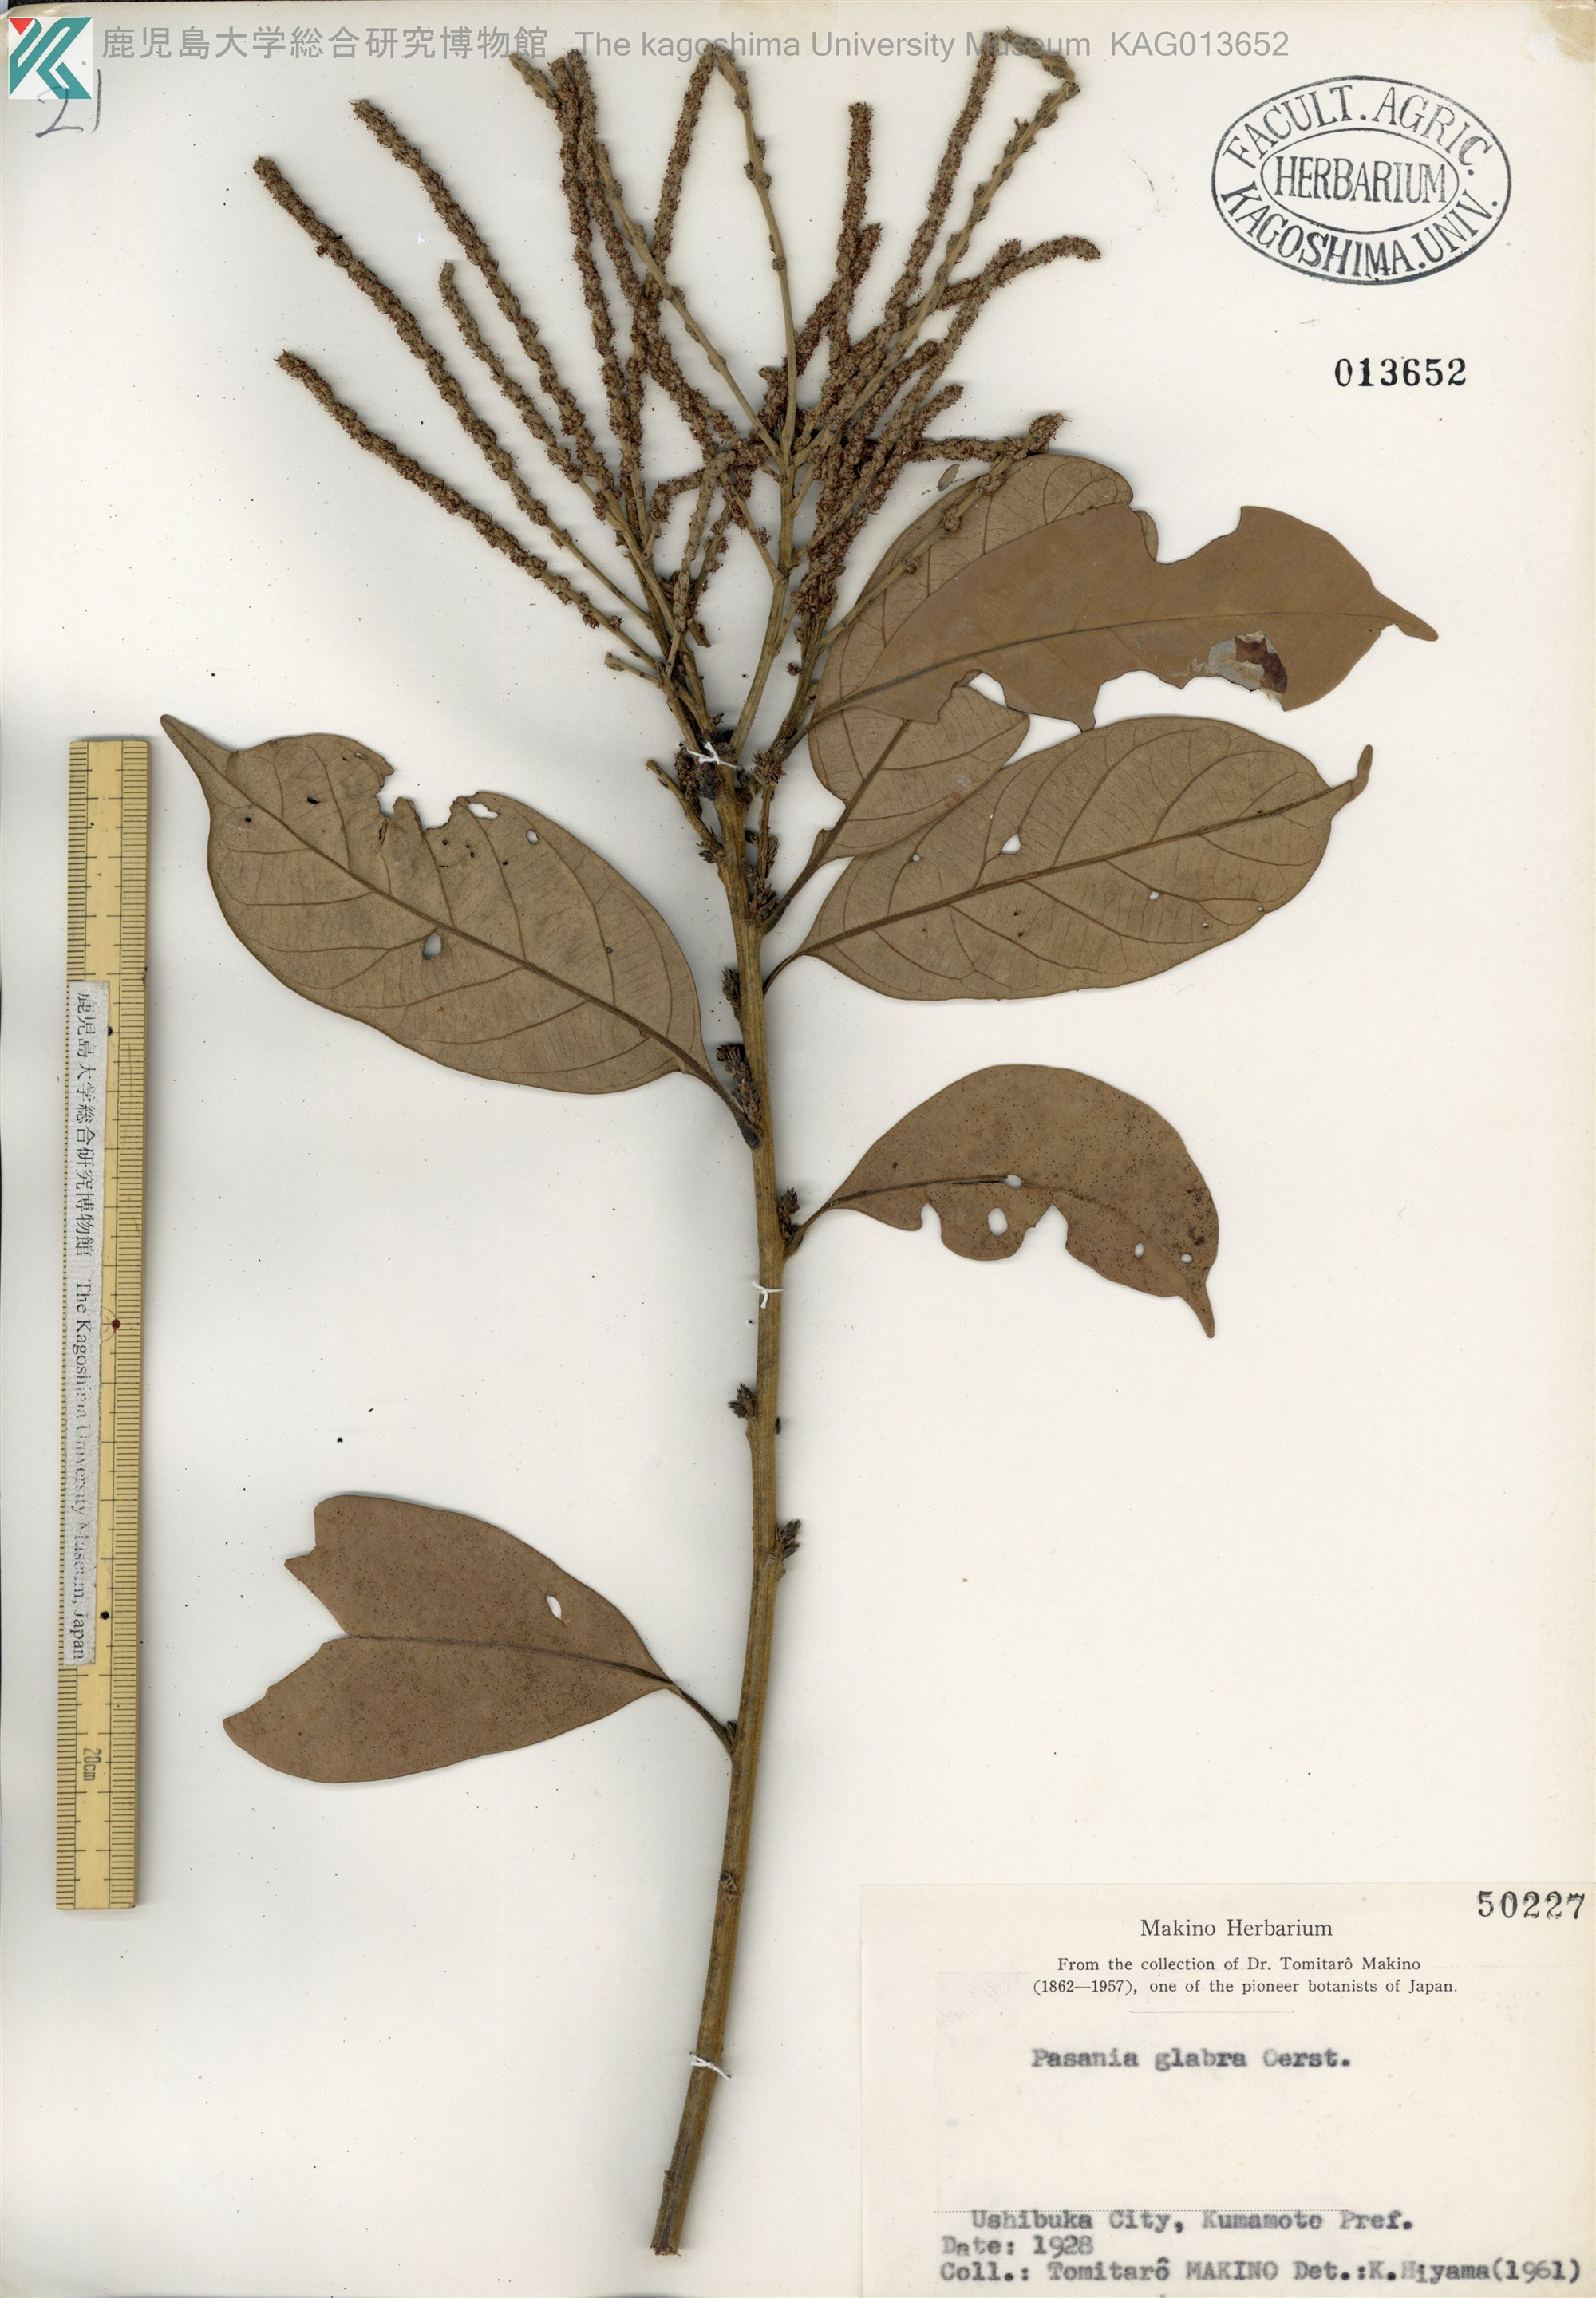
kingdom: Plantae
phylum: Tracheophyta
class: Magnoliopsida
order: Fagales
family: Fagaceae
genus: Lithocarpus
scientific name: Lithocarpus glaber
